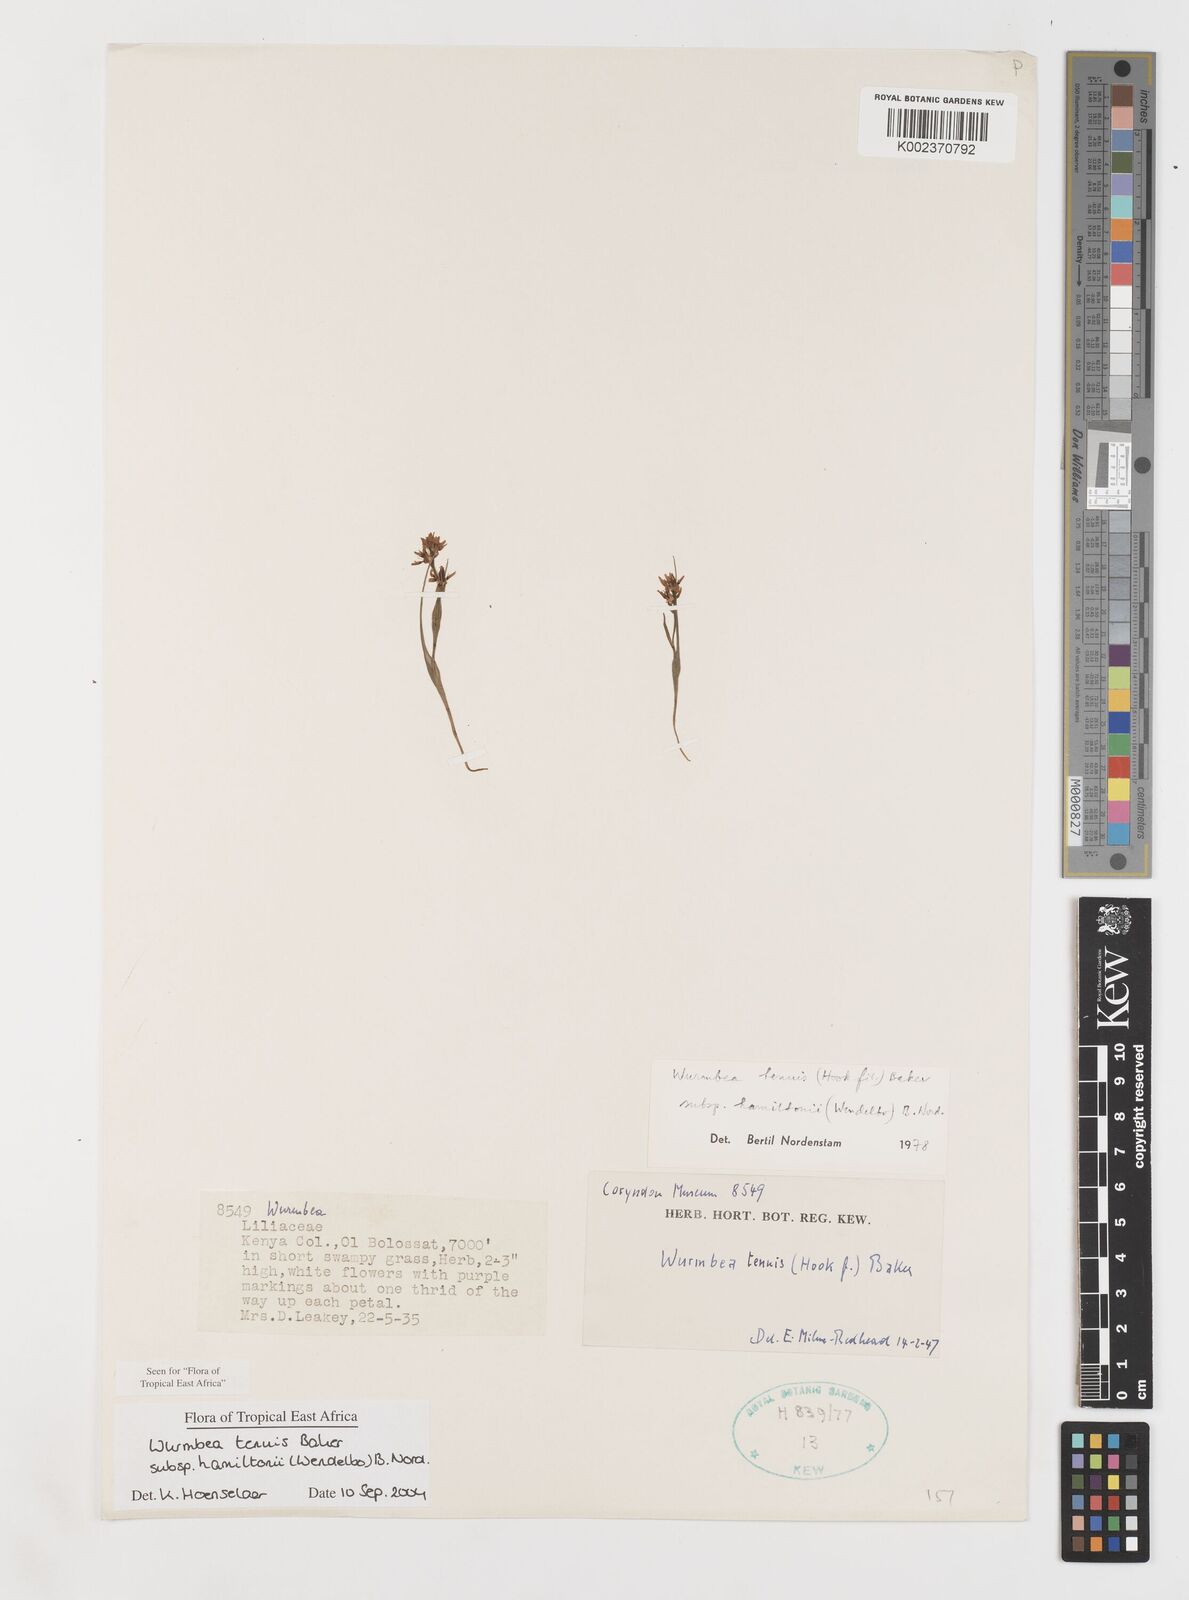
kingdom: Plantae
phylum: Tracheophyta
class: Liliopsida
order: Liliales
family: Colchicaceae
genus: Wurmbea
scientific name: Wurmbea tenuis
